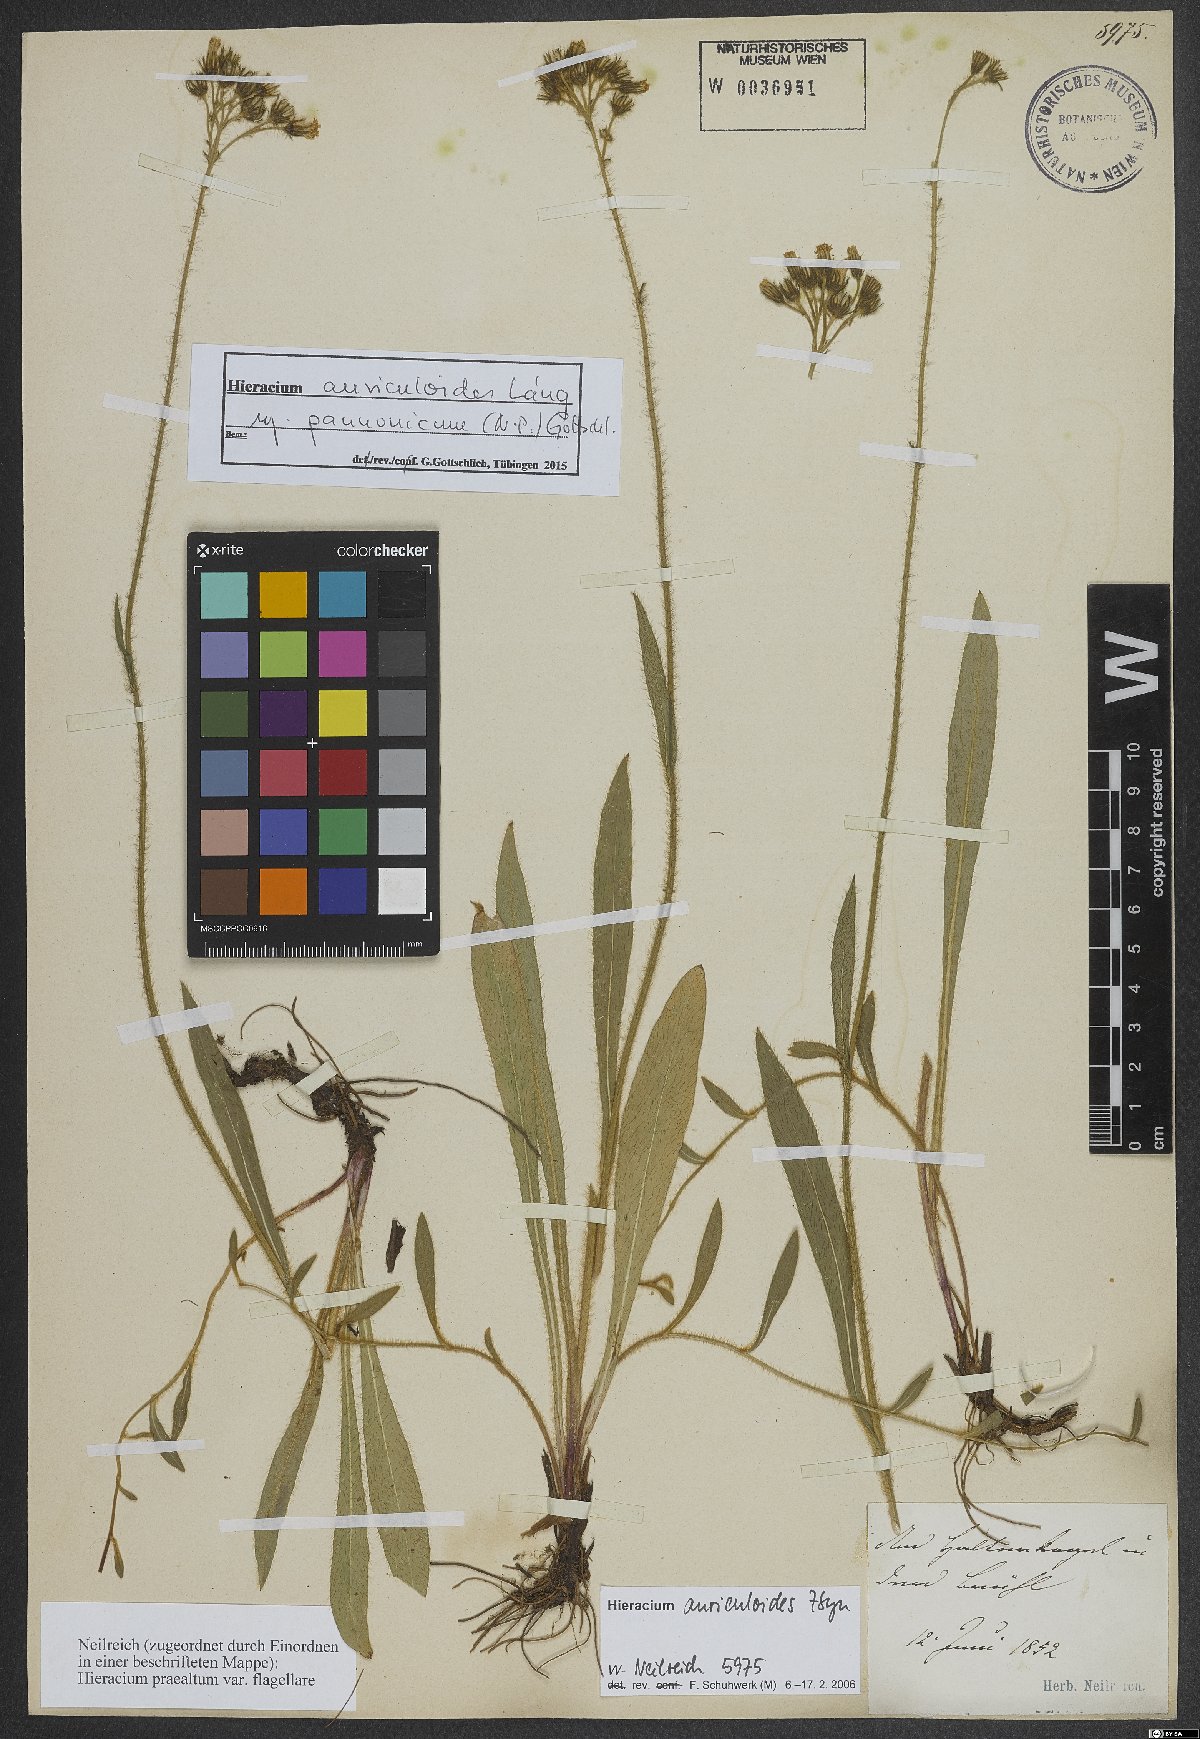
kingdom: Plantae
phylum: Tracheophyta
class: Magnoliopsida
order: Asterales
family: Asteraceae
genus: Pilosella
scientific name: Pilosella auriculoides
